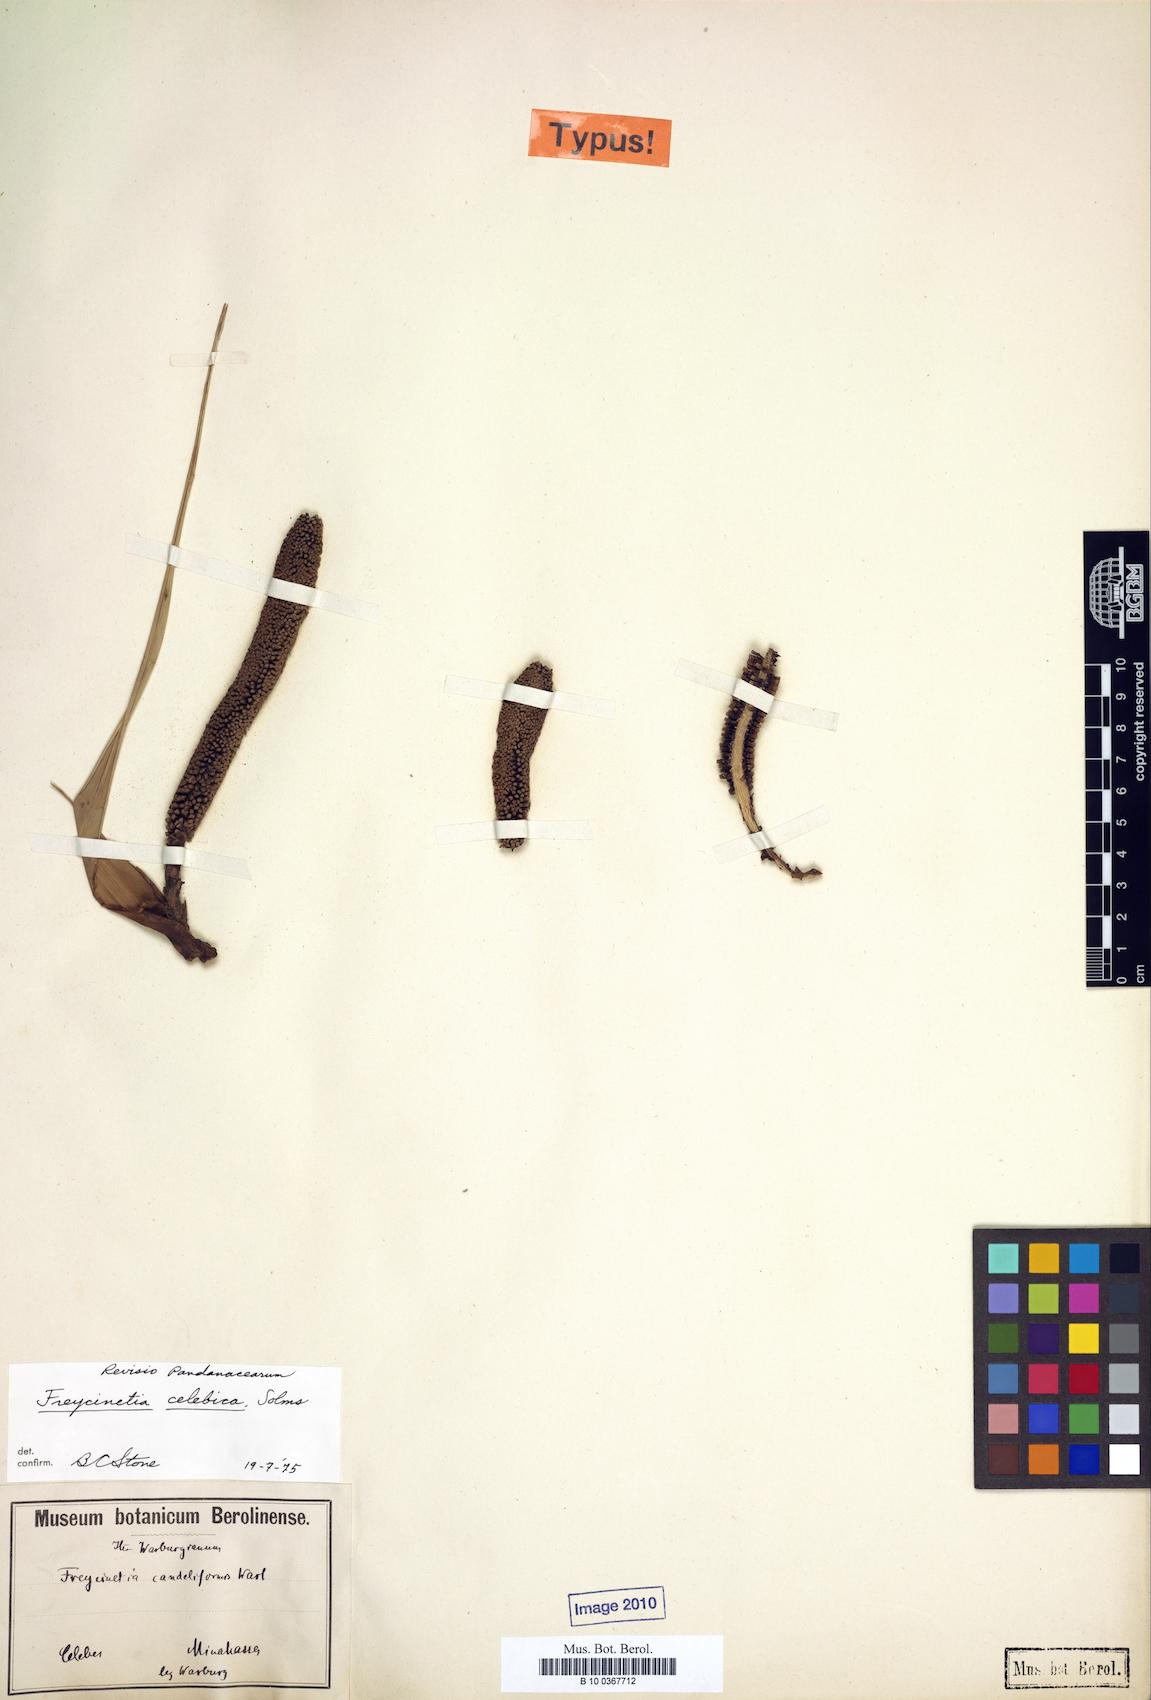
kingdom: Plantae
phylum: Tracheophyta
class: Liliopsida
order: Pandanales
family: Pandanaceae
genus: Freycinetia
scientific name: Freycinetia celebica
